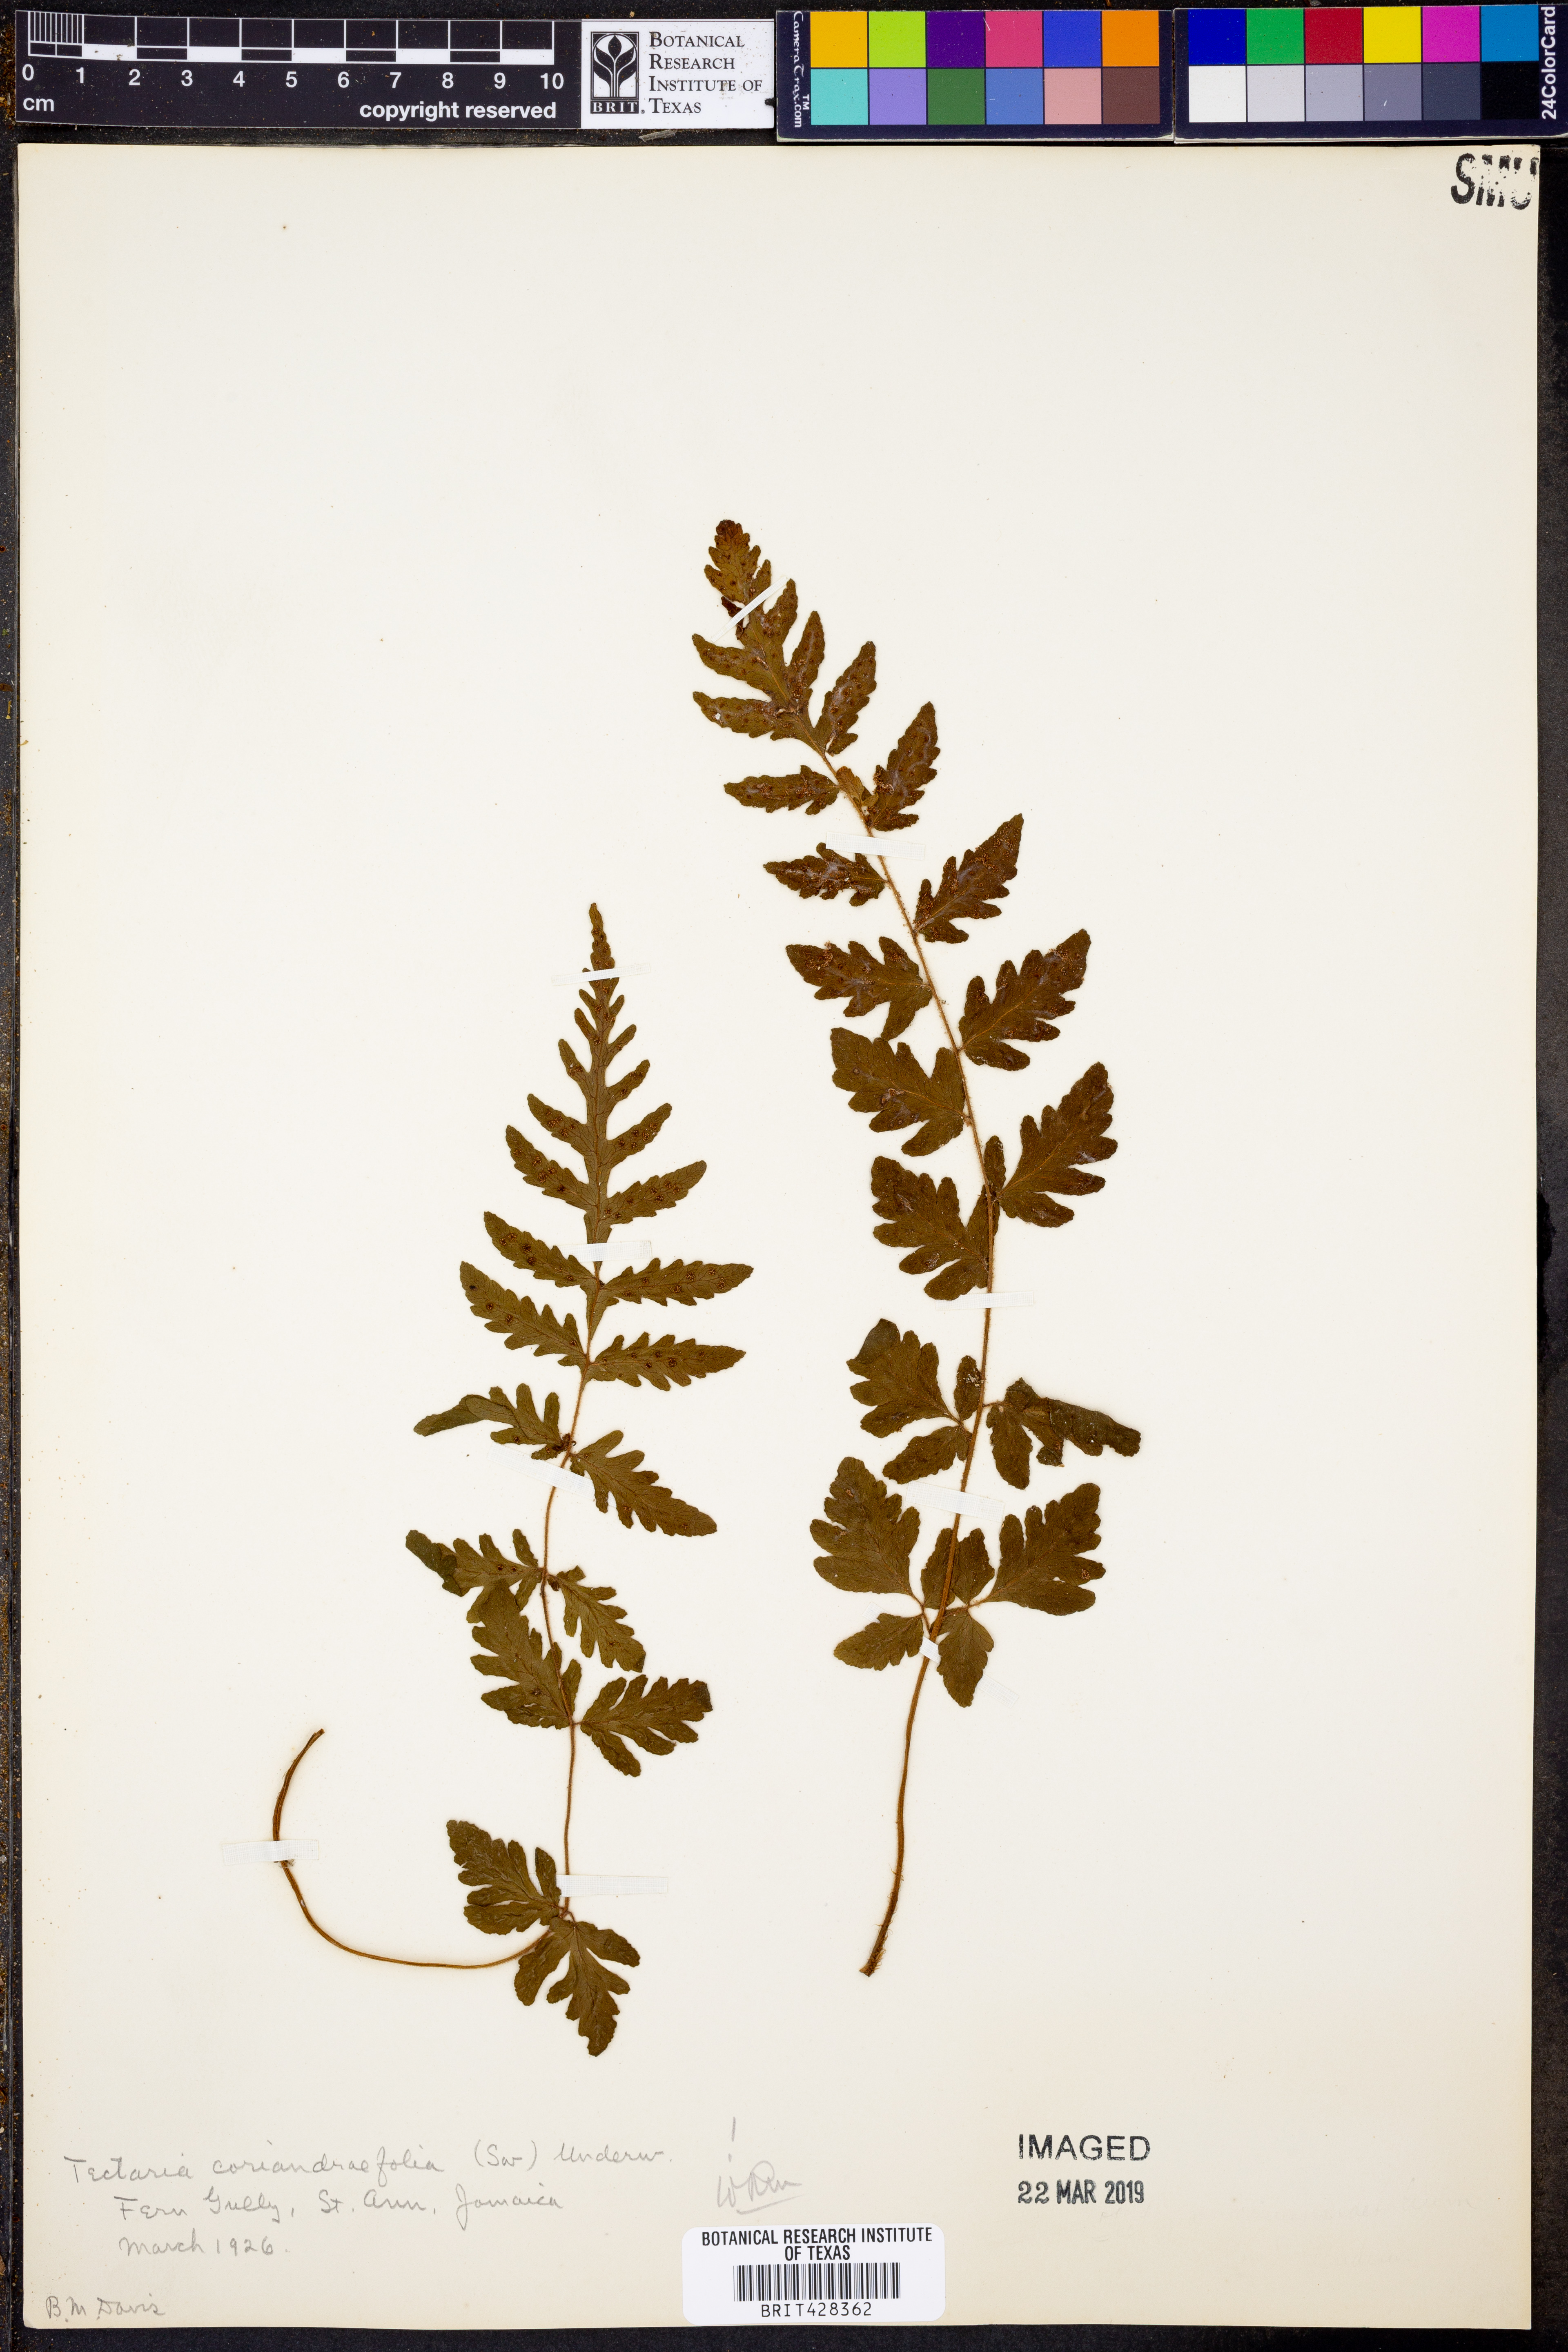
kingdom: Plantae
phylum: Tracheophyta
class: Polypodiopsida
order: Polypodiales
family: Tectariaceae
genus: Tectaria
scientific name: Tectaria coriandrifolia
